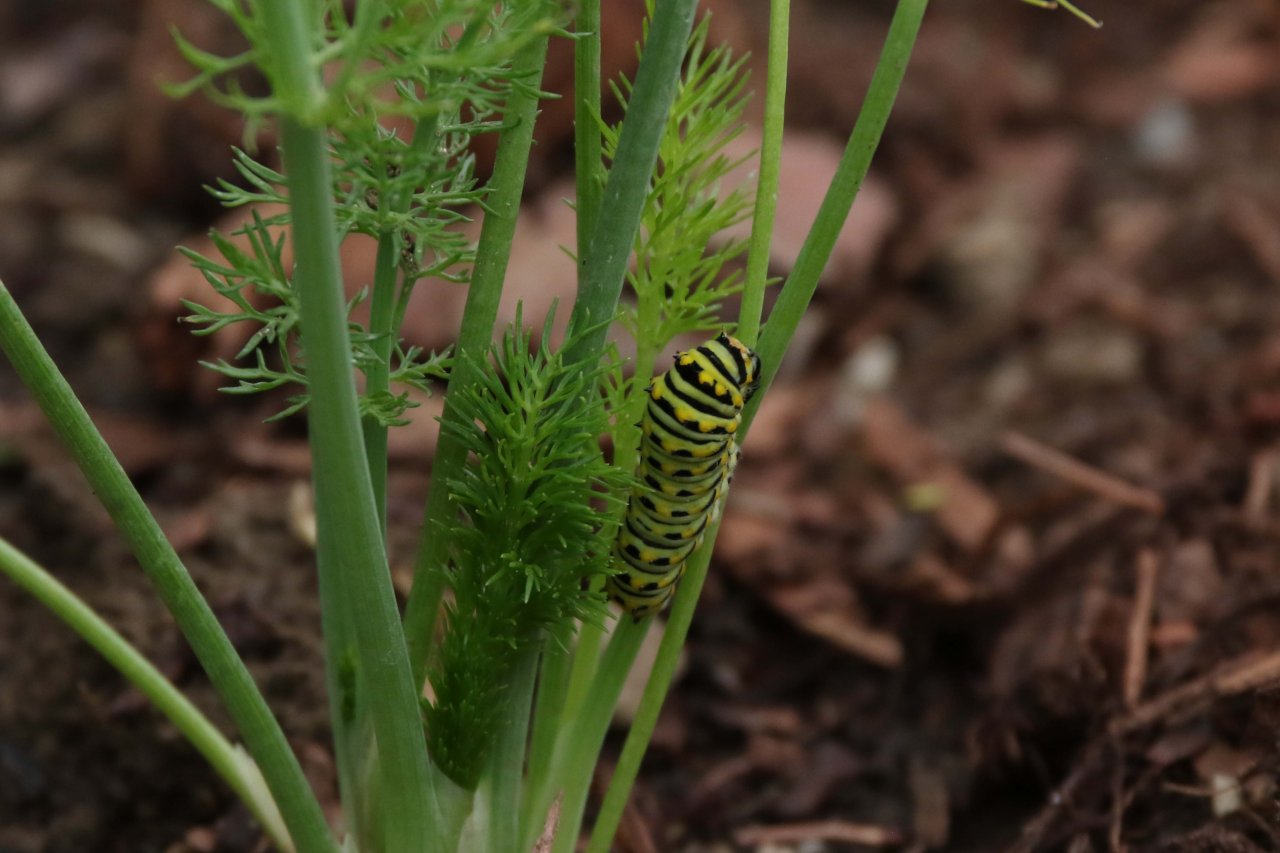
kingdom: Animalia
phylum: Arthropoda
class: Insecta
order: Lepidoptera
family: Papilionidae
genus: Papilio
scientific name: Papilio polyxenes
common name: Black Swallowtail
